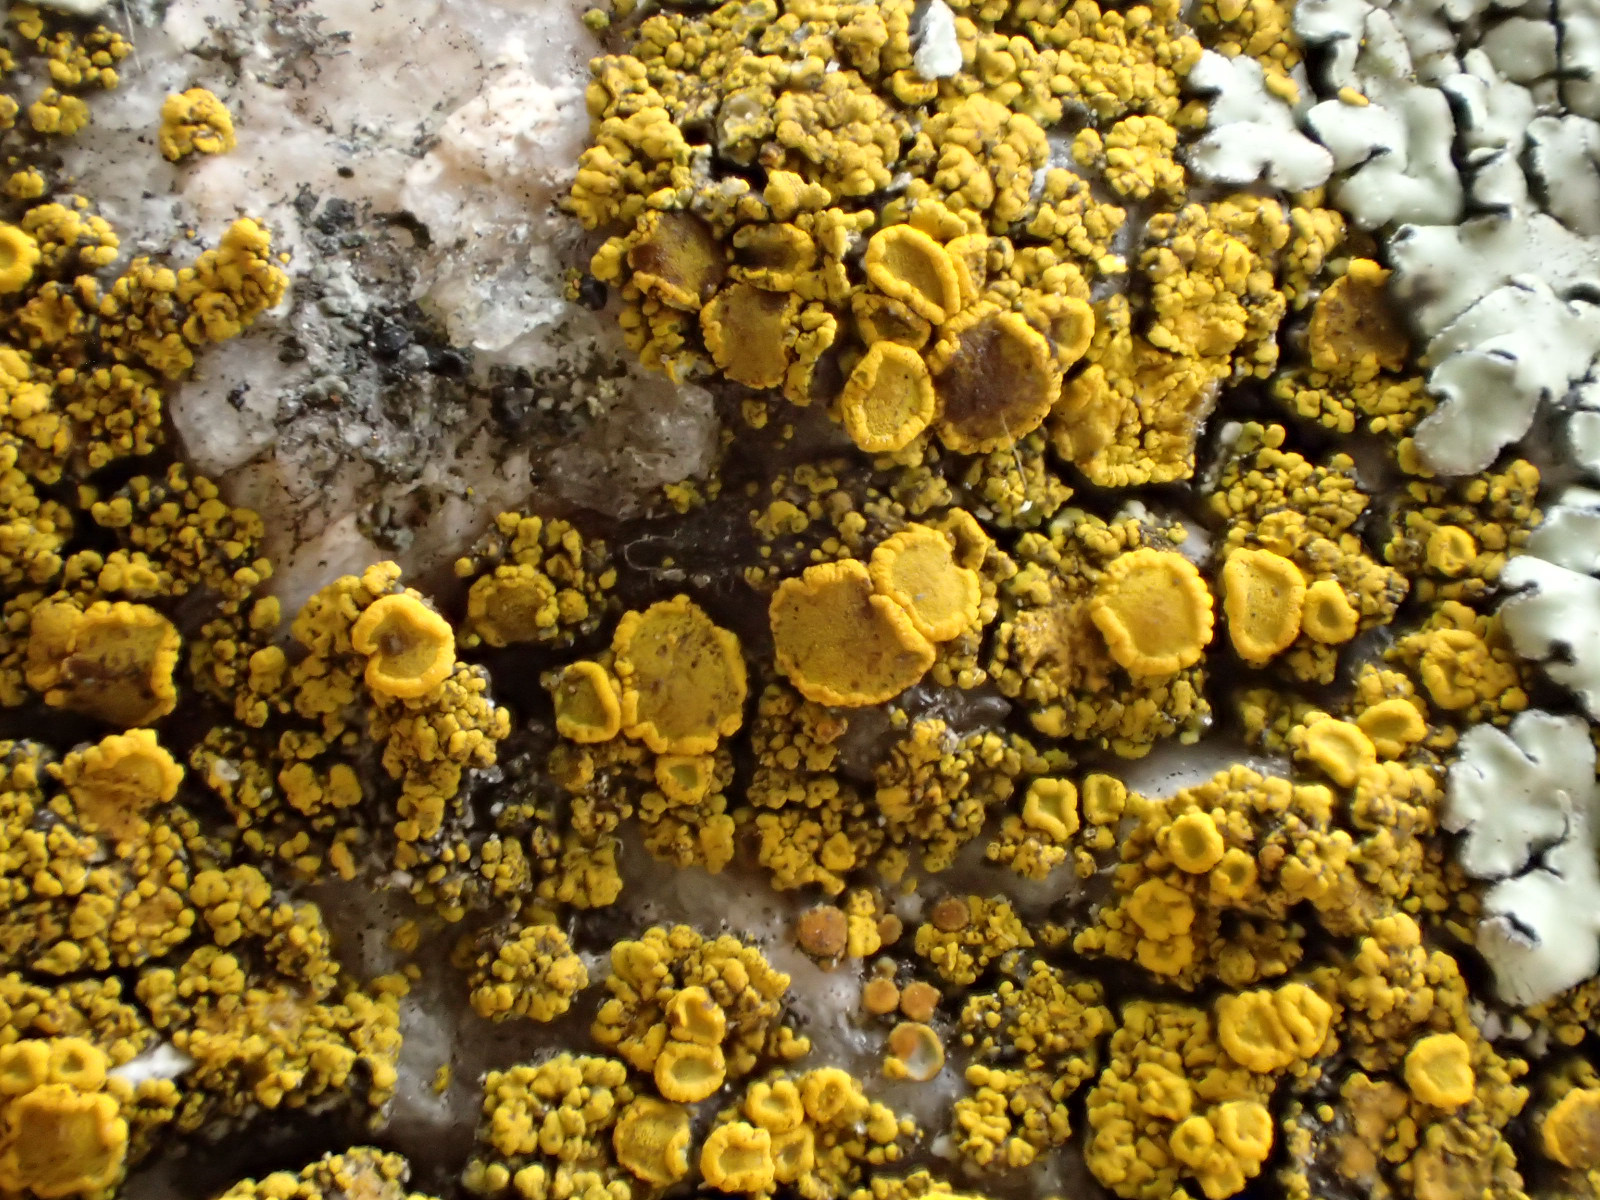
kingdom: Fungi
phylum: Ascomycota
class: Candelariomycetes
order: Candelariales
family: Candelariaceae
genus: Candelariella
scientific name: Candelariella vitellina
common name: almindelig æggeblommelav
